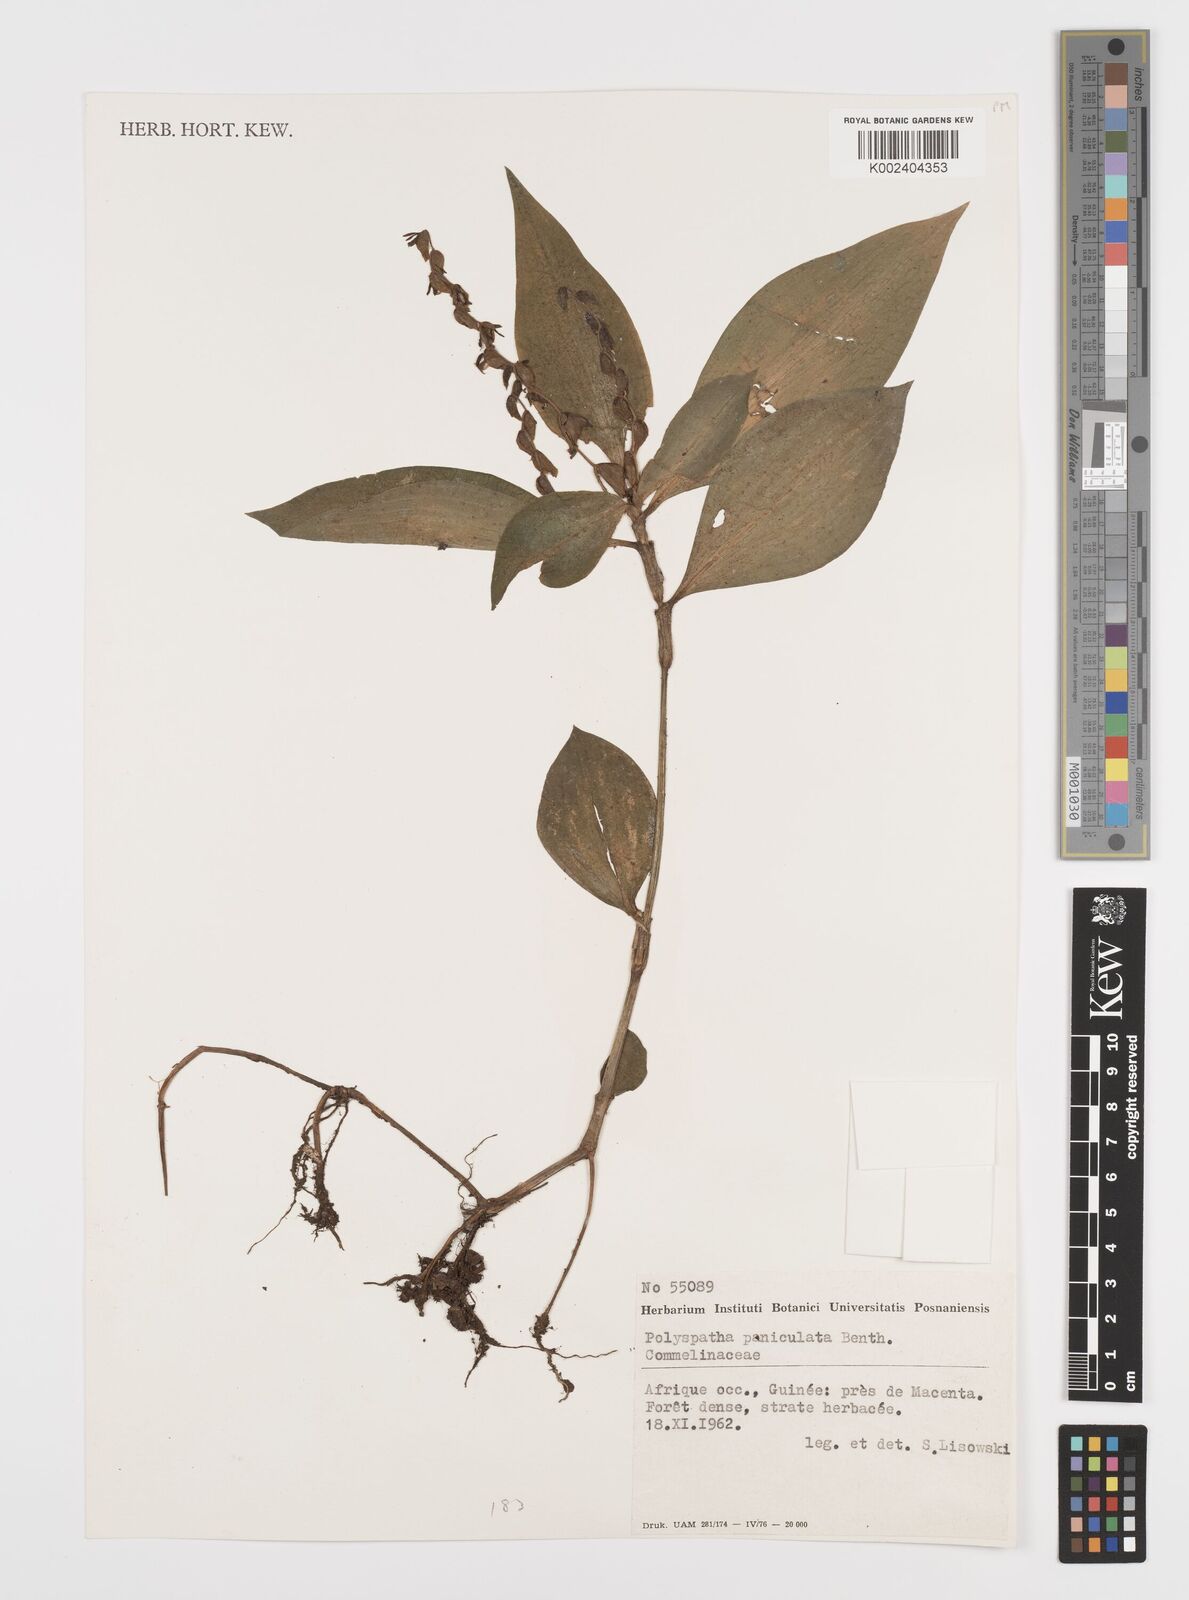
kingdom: Plantae
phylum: Tracheophyta
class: Liliopsida
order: Commelinales
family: Commelinaceae
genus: Polyspatha
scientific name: Polyspatha paniculata
